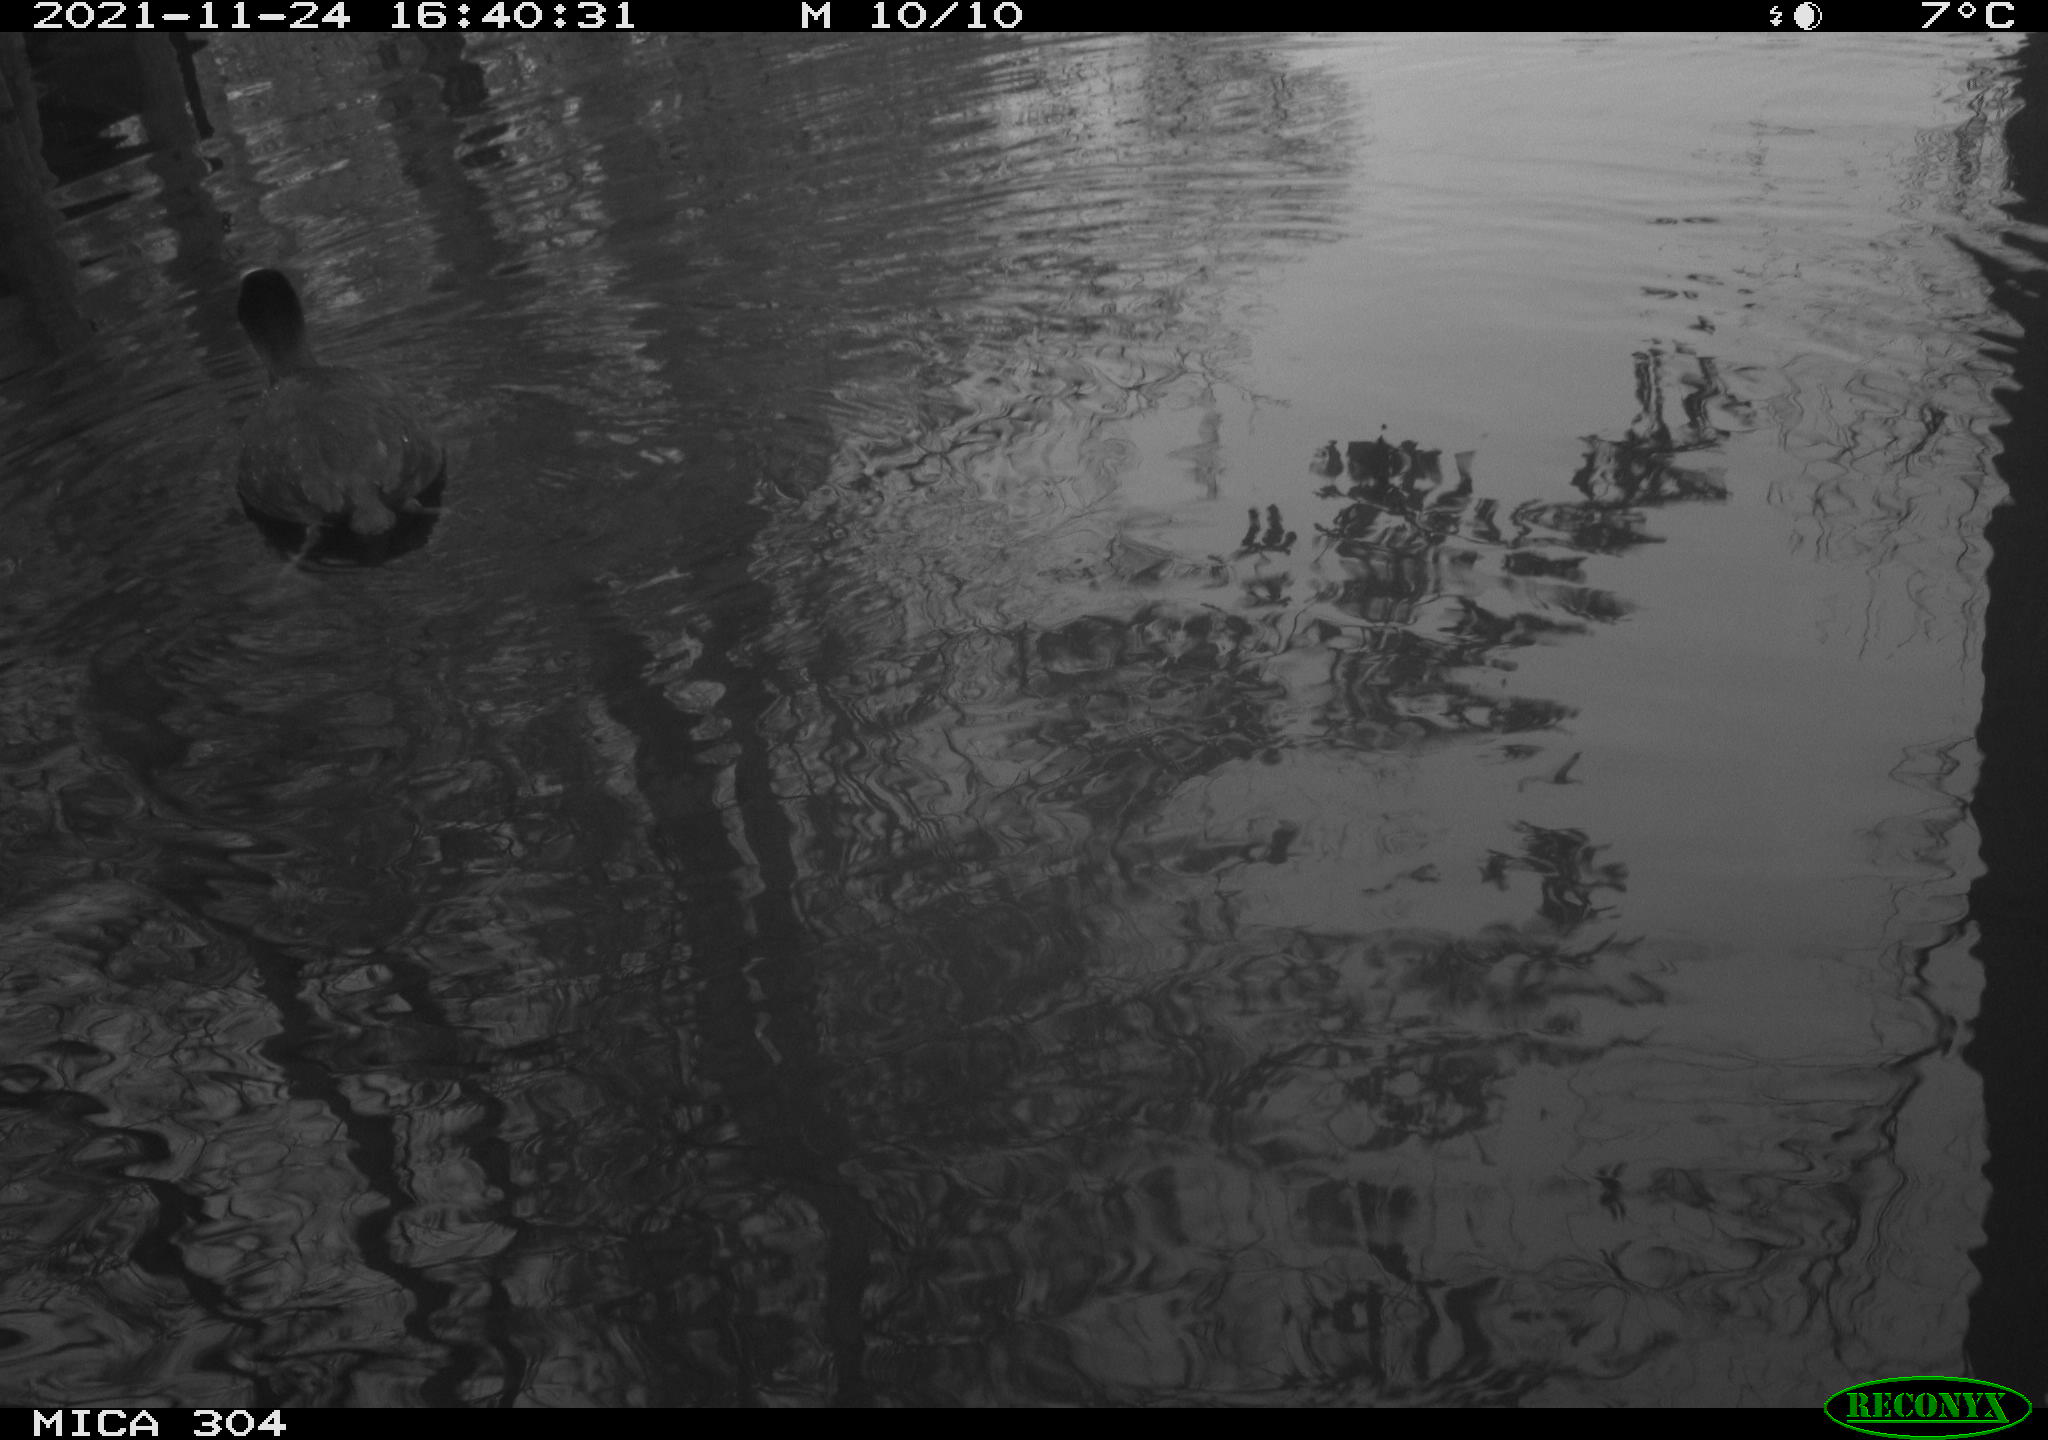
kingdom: Animalia
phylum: Chordata
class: Aves
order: Gruiformes
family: Rallidae
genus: Fulica
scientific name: Fulica atra
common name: Eurasian coot
